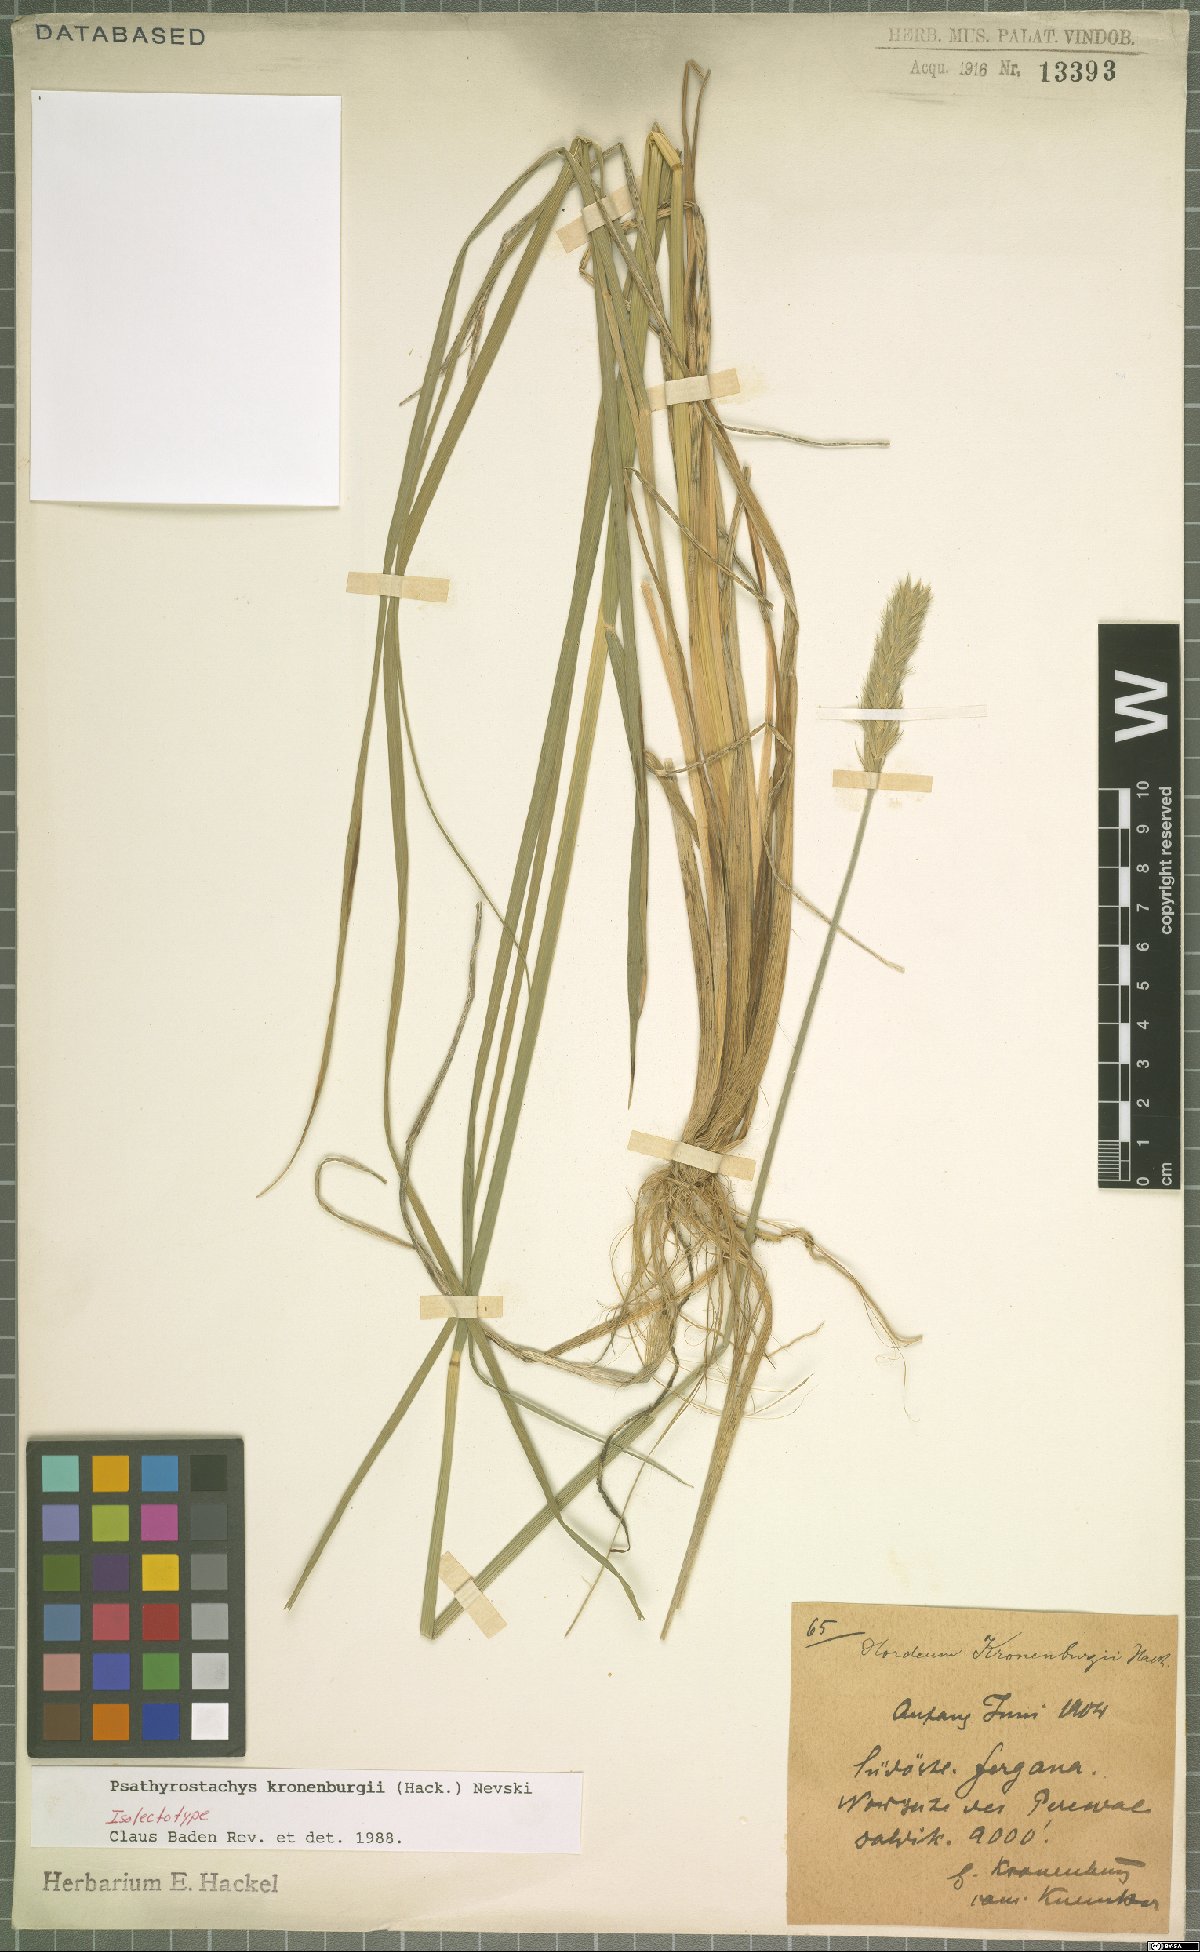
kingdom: Plantae
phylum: Tracheophyta
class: Liliopsida
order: Poales
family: Poaceae
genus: Psathyrostachys
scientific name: Psathyrostachys kronenburgii
